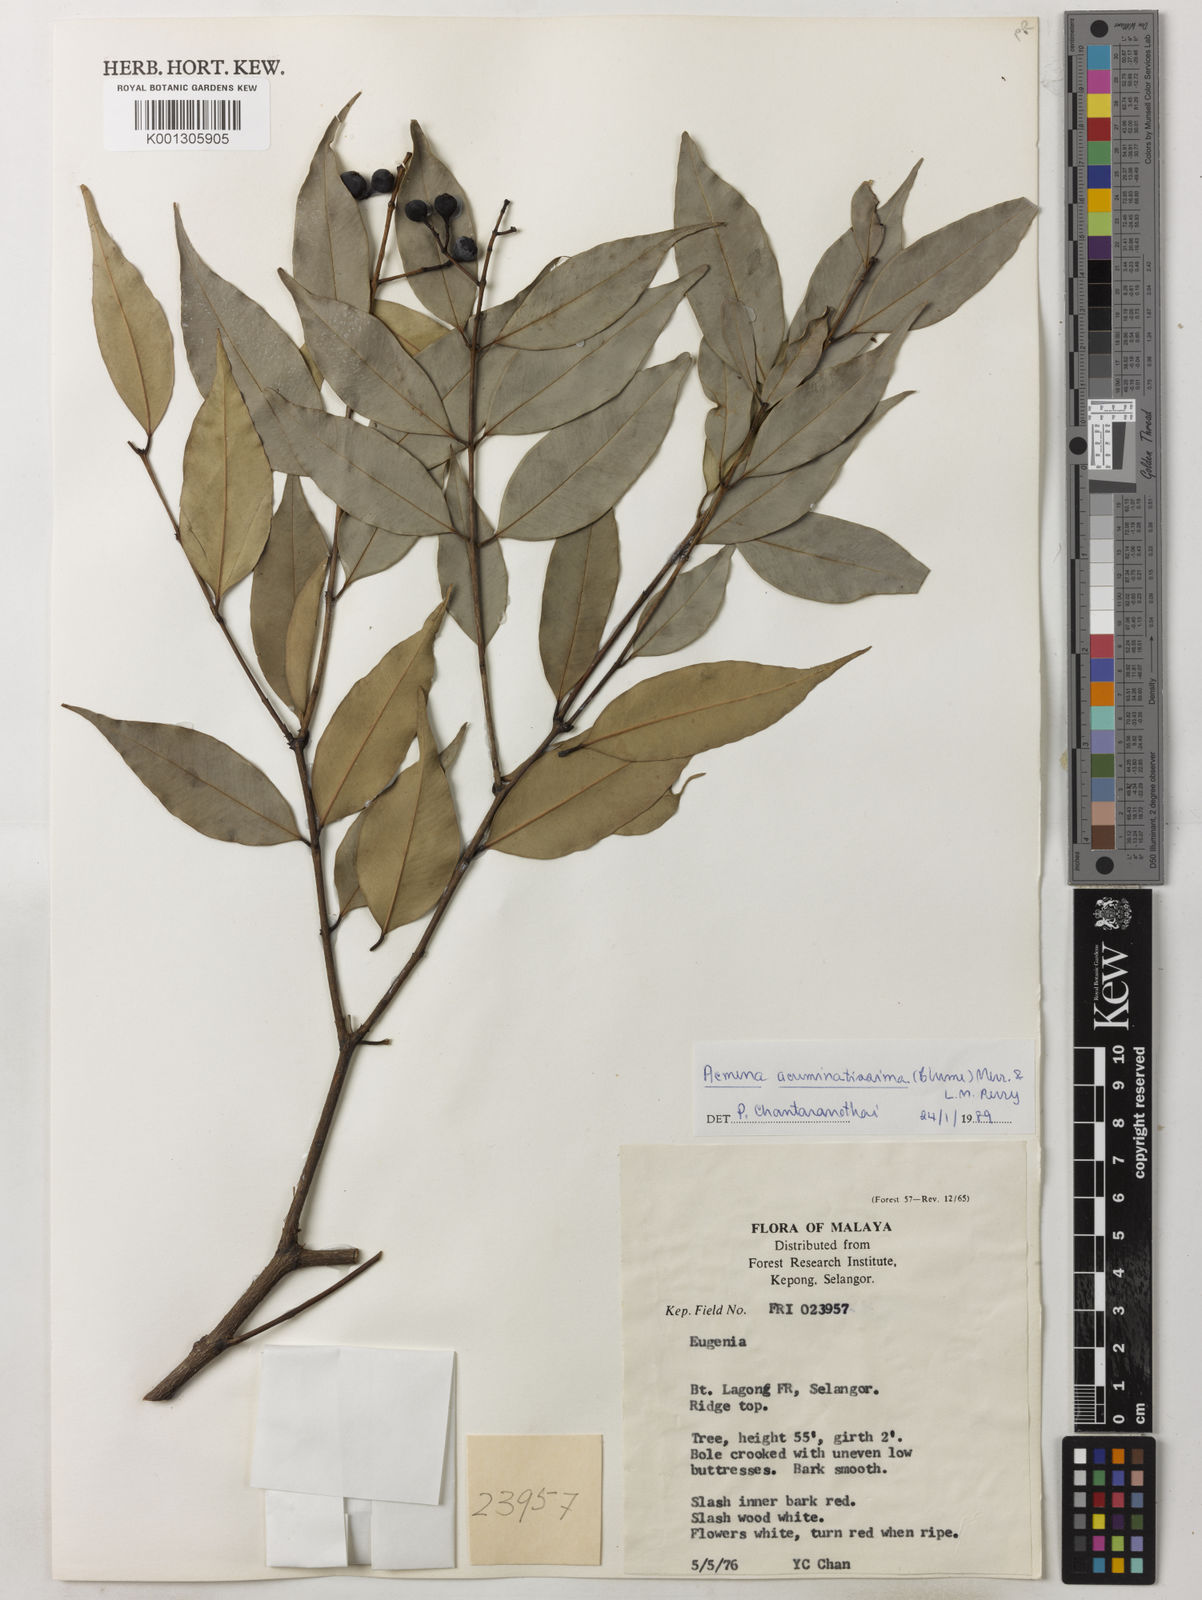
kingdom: Plantae
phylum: Tracheophyta
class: Magnoliopsida
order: Myrtales
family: Myrtaceae
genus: Syzygium
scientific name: Syzygium acuminatissimum
